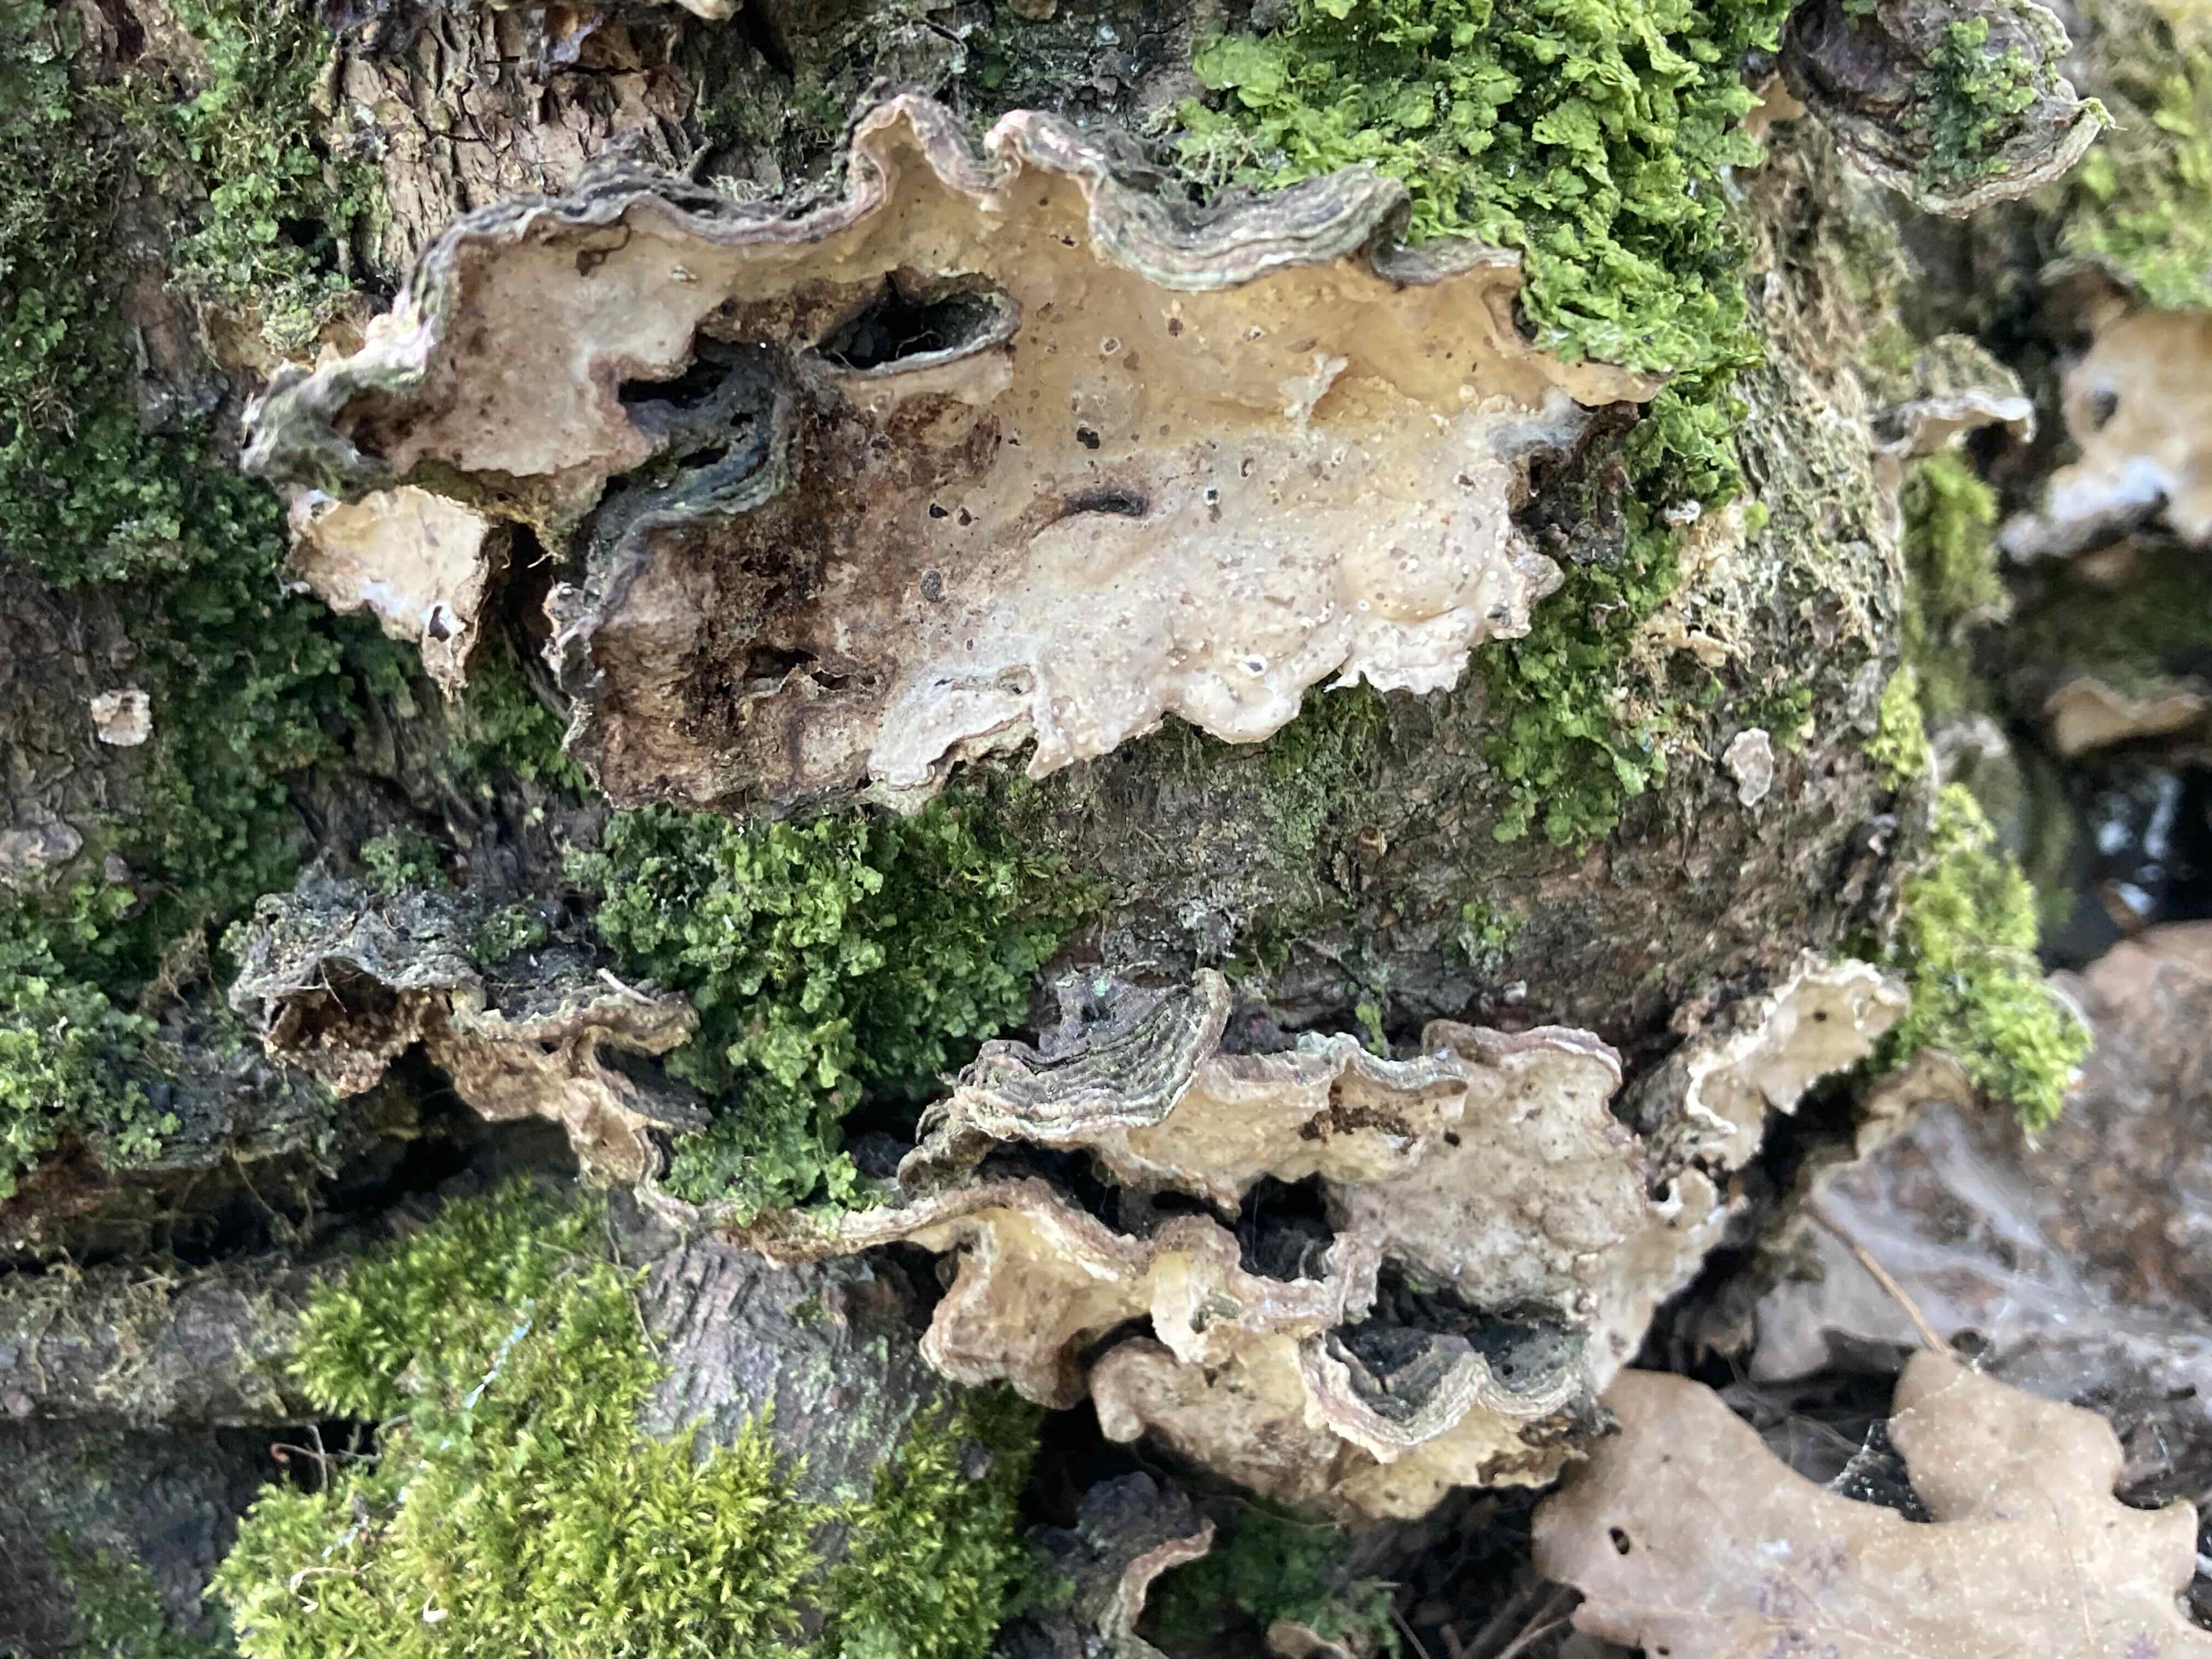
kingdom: Fungi
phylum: Basidiomycota
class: Agaricomycetes
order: Russulales
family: Stereaceae
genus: Stereum
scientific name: Stereum rugosum
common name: rynket lædersvamp
